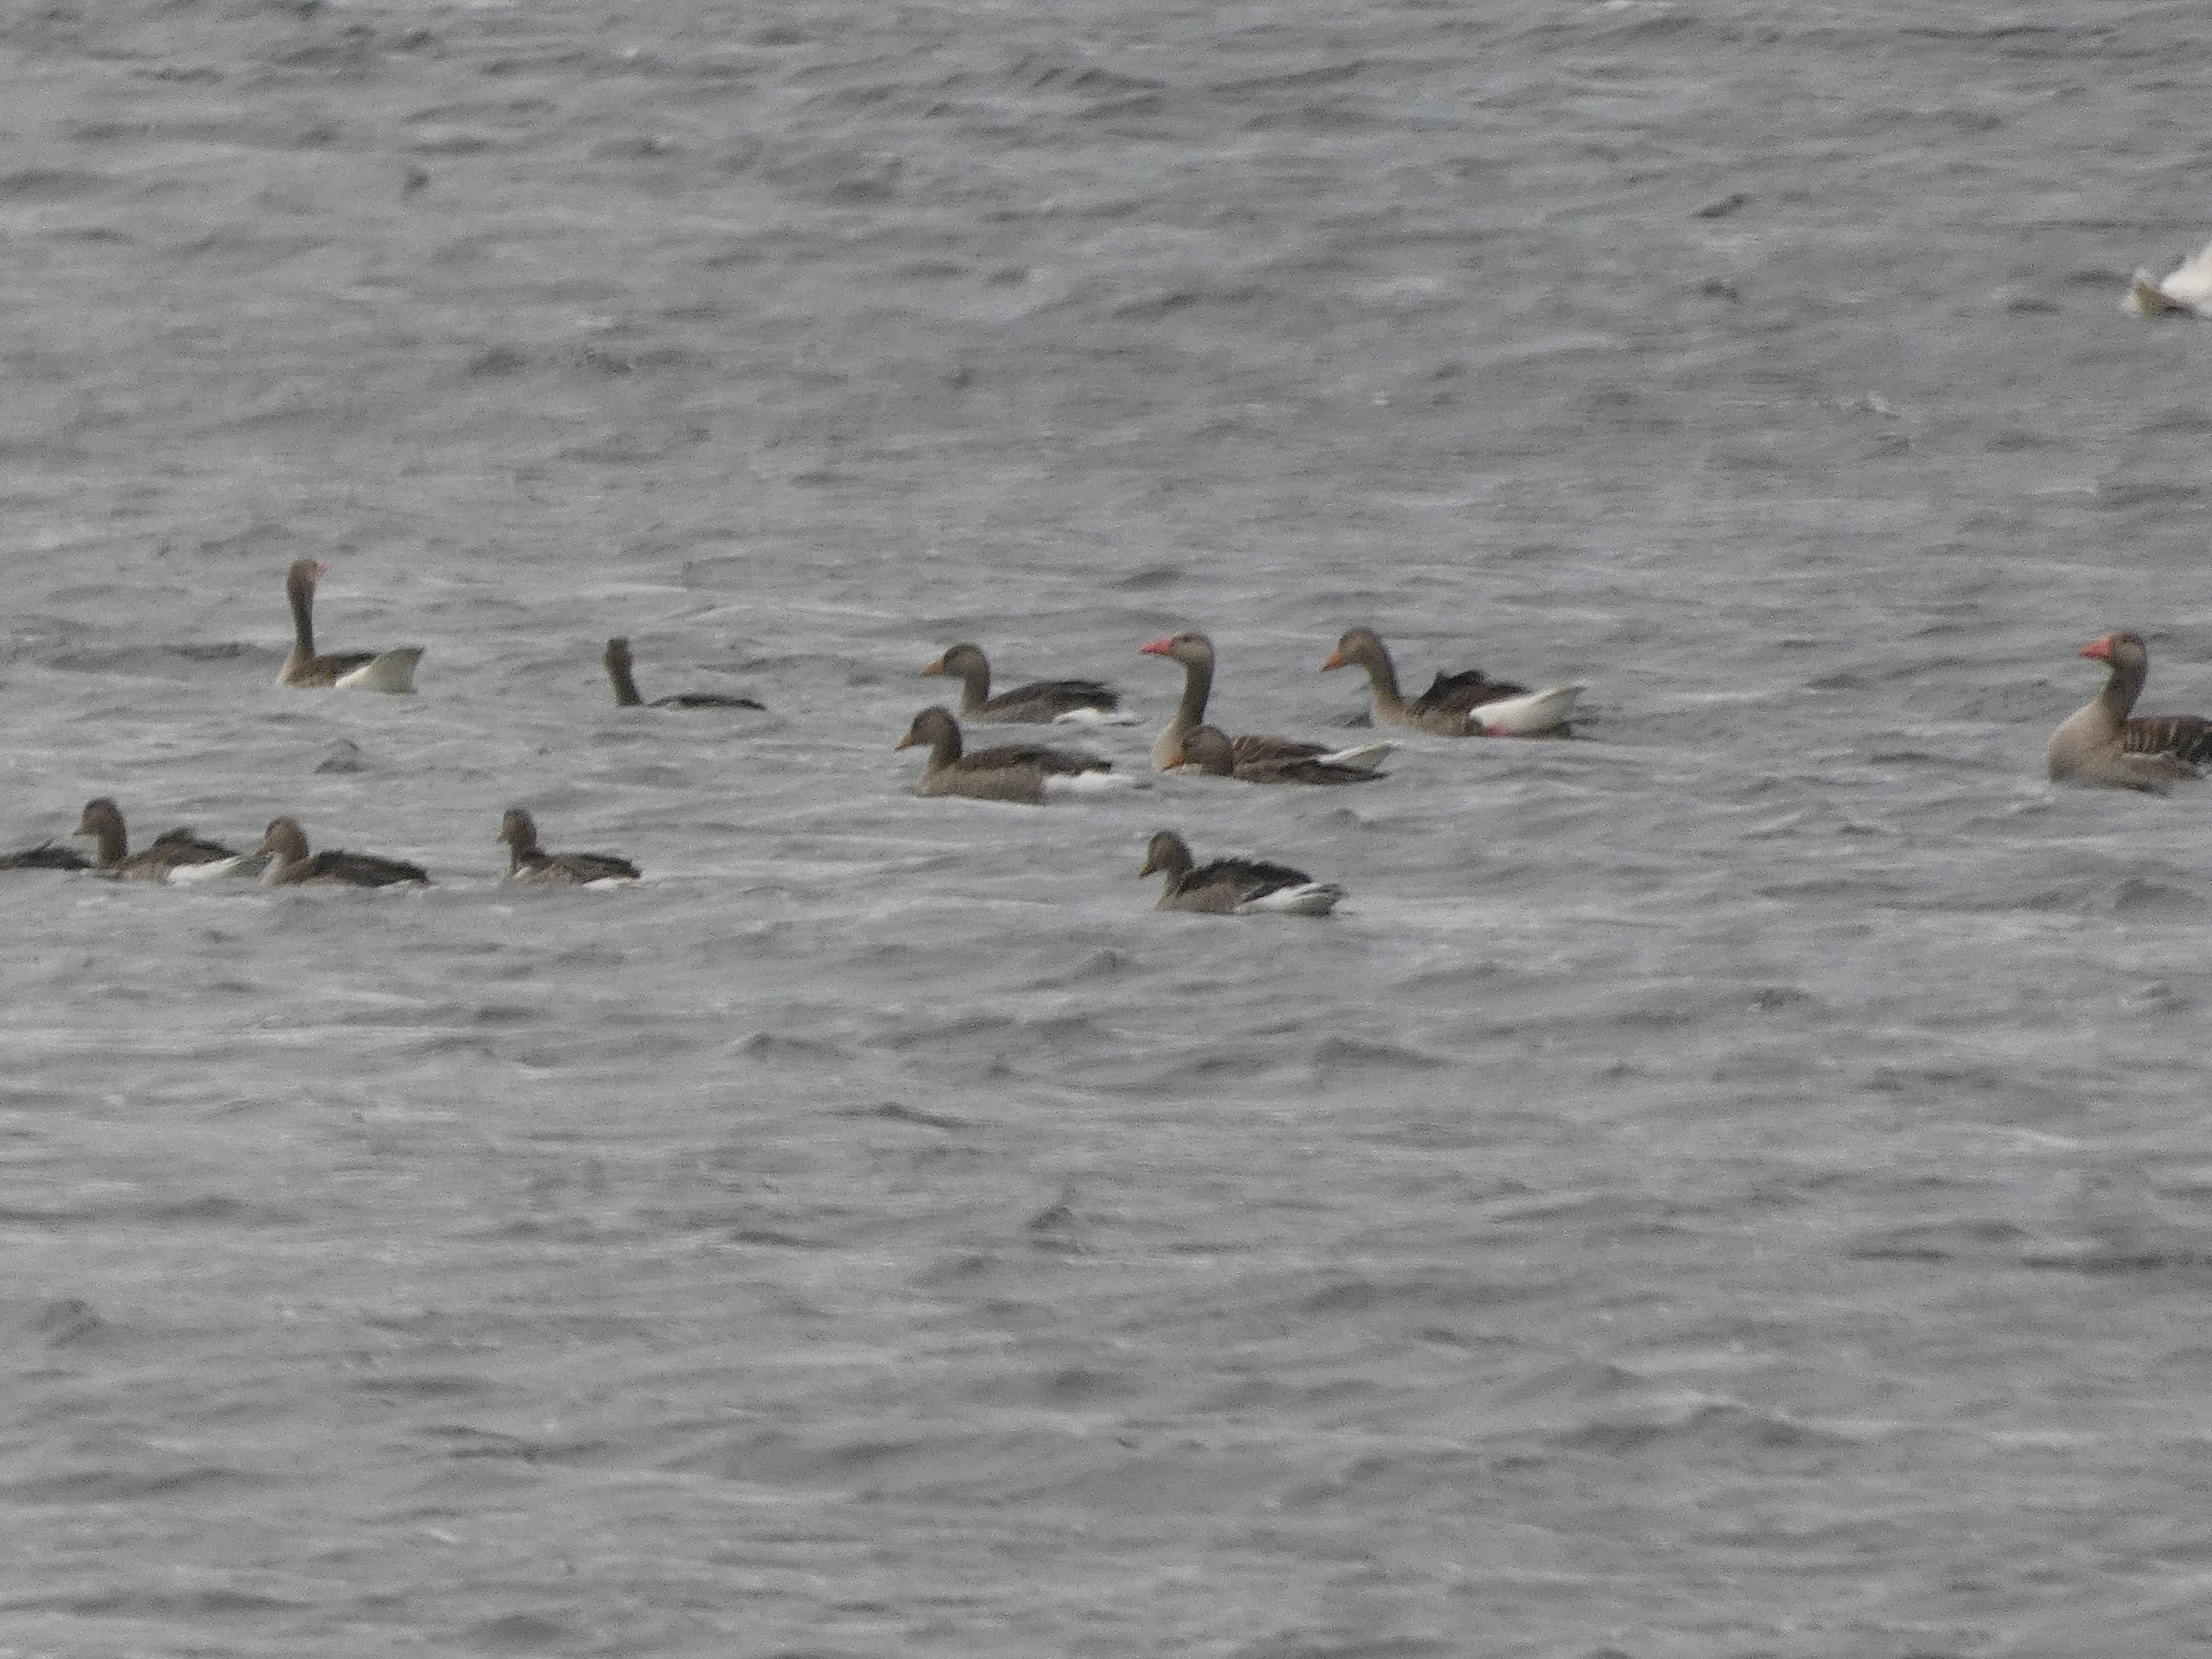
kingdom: Animalia
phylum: Chordata
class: Aves
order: Anseriformes
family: Anatidae
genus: Anser
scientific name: Anser anser
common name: Grågås
